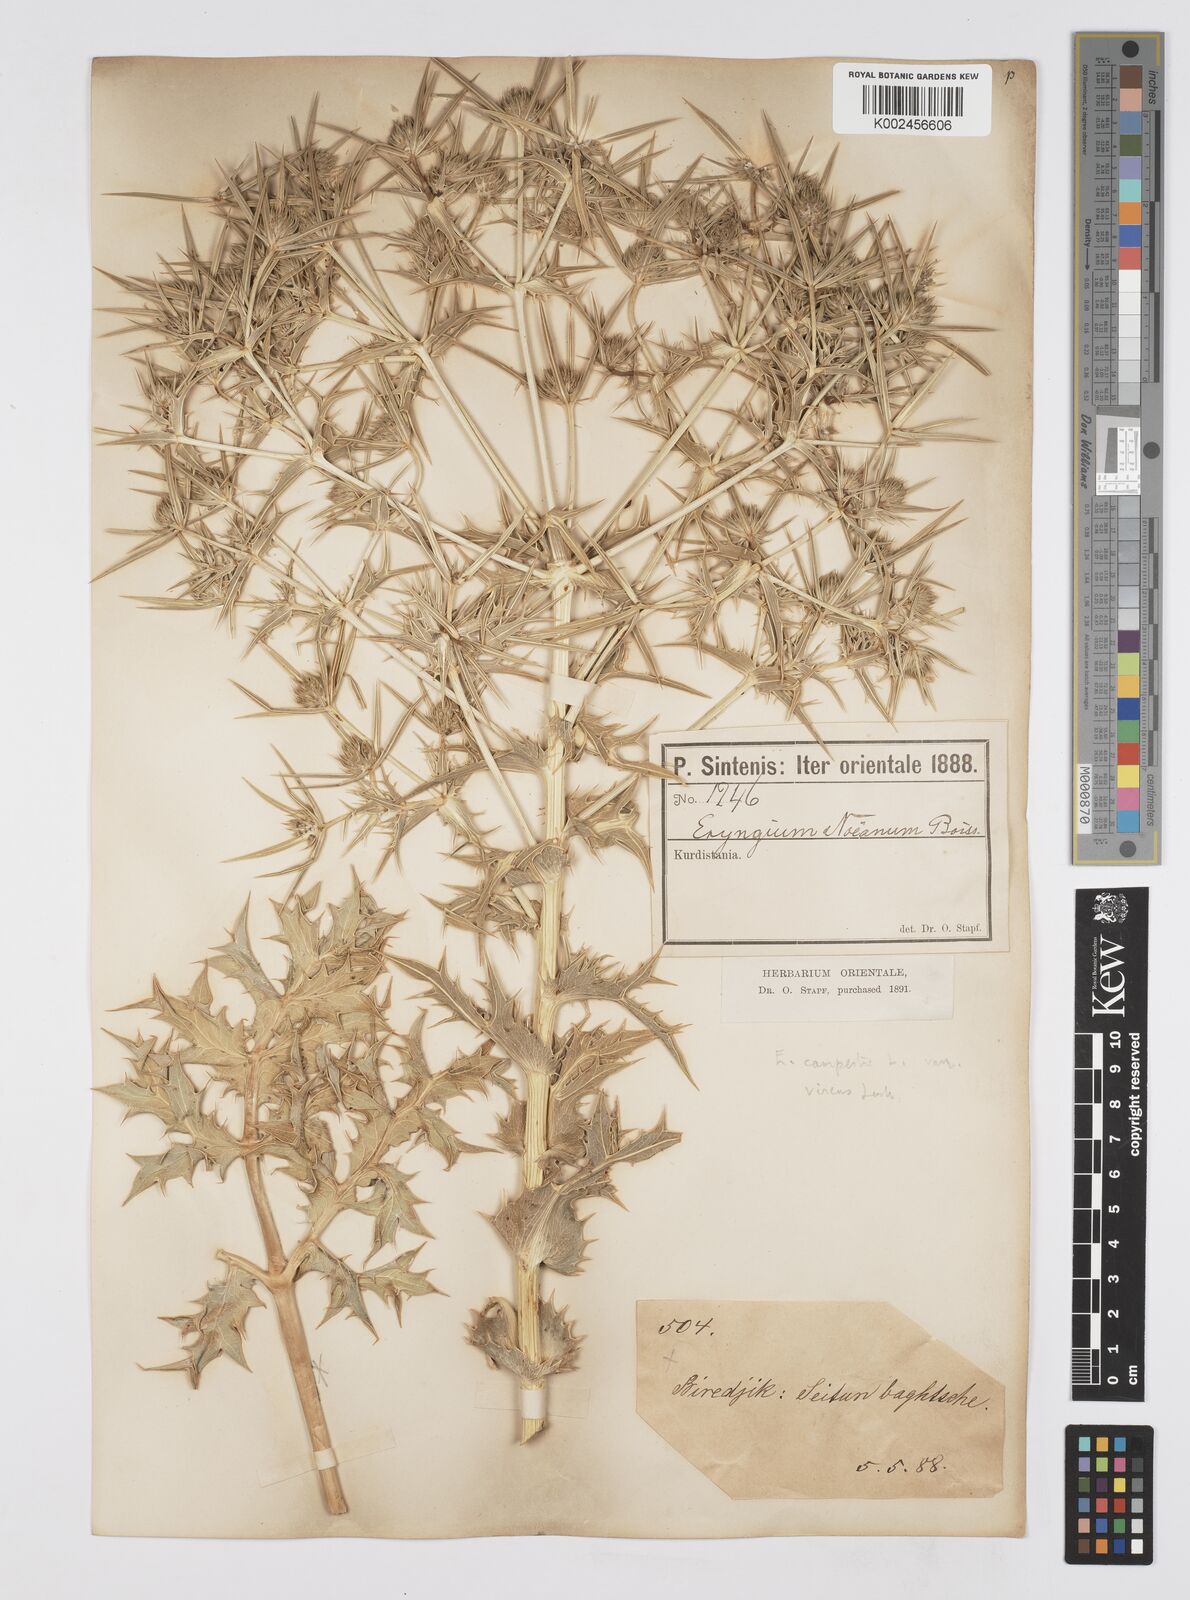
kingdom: Plantae
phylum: Tracheophyta
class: Magnoliopsida
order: Apiales
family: Apiaceae
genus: Eryngium
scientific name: Eryngium campestre
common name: Field eryngo
